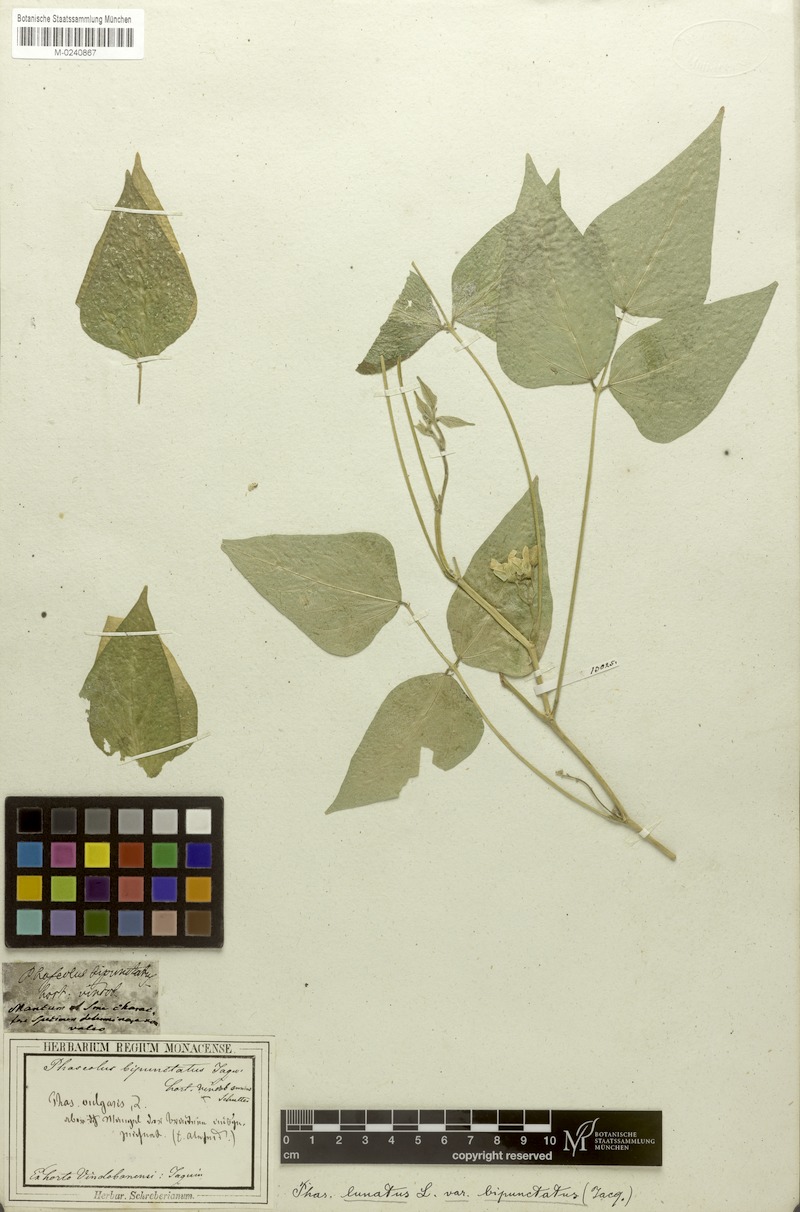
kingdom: Plantae
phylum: Tracheophyta
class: Magnoliopsida
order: Fabales
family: Fabaceae
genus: Phaseolus
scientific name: Phaseolus lunatus
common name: Sieva bean
